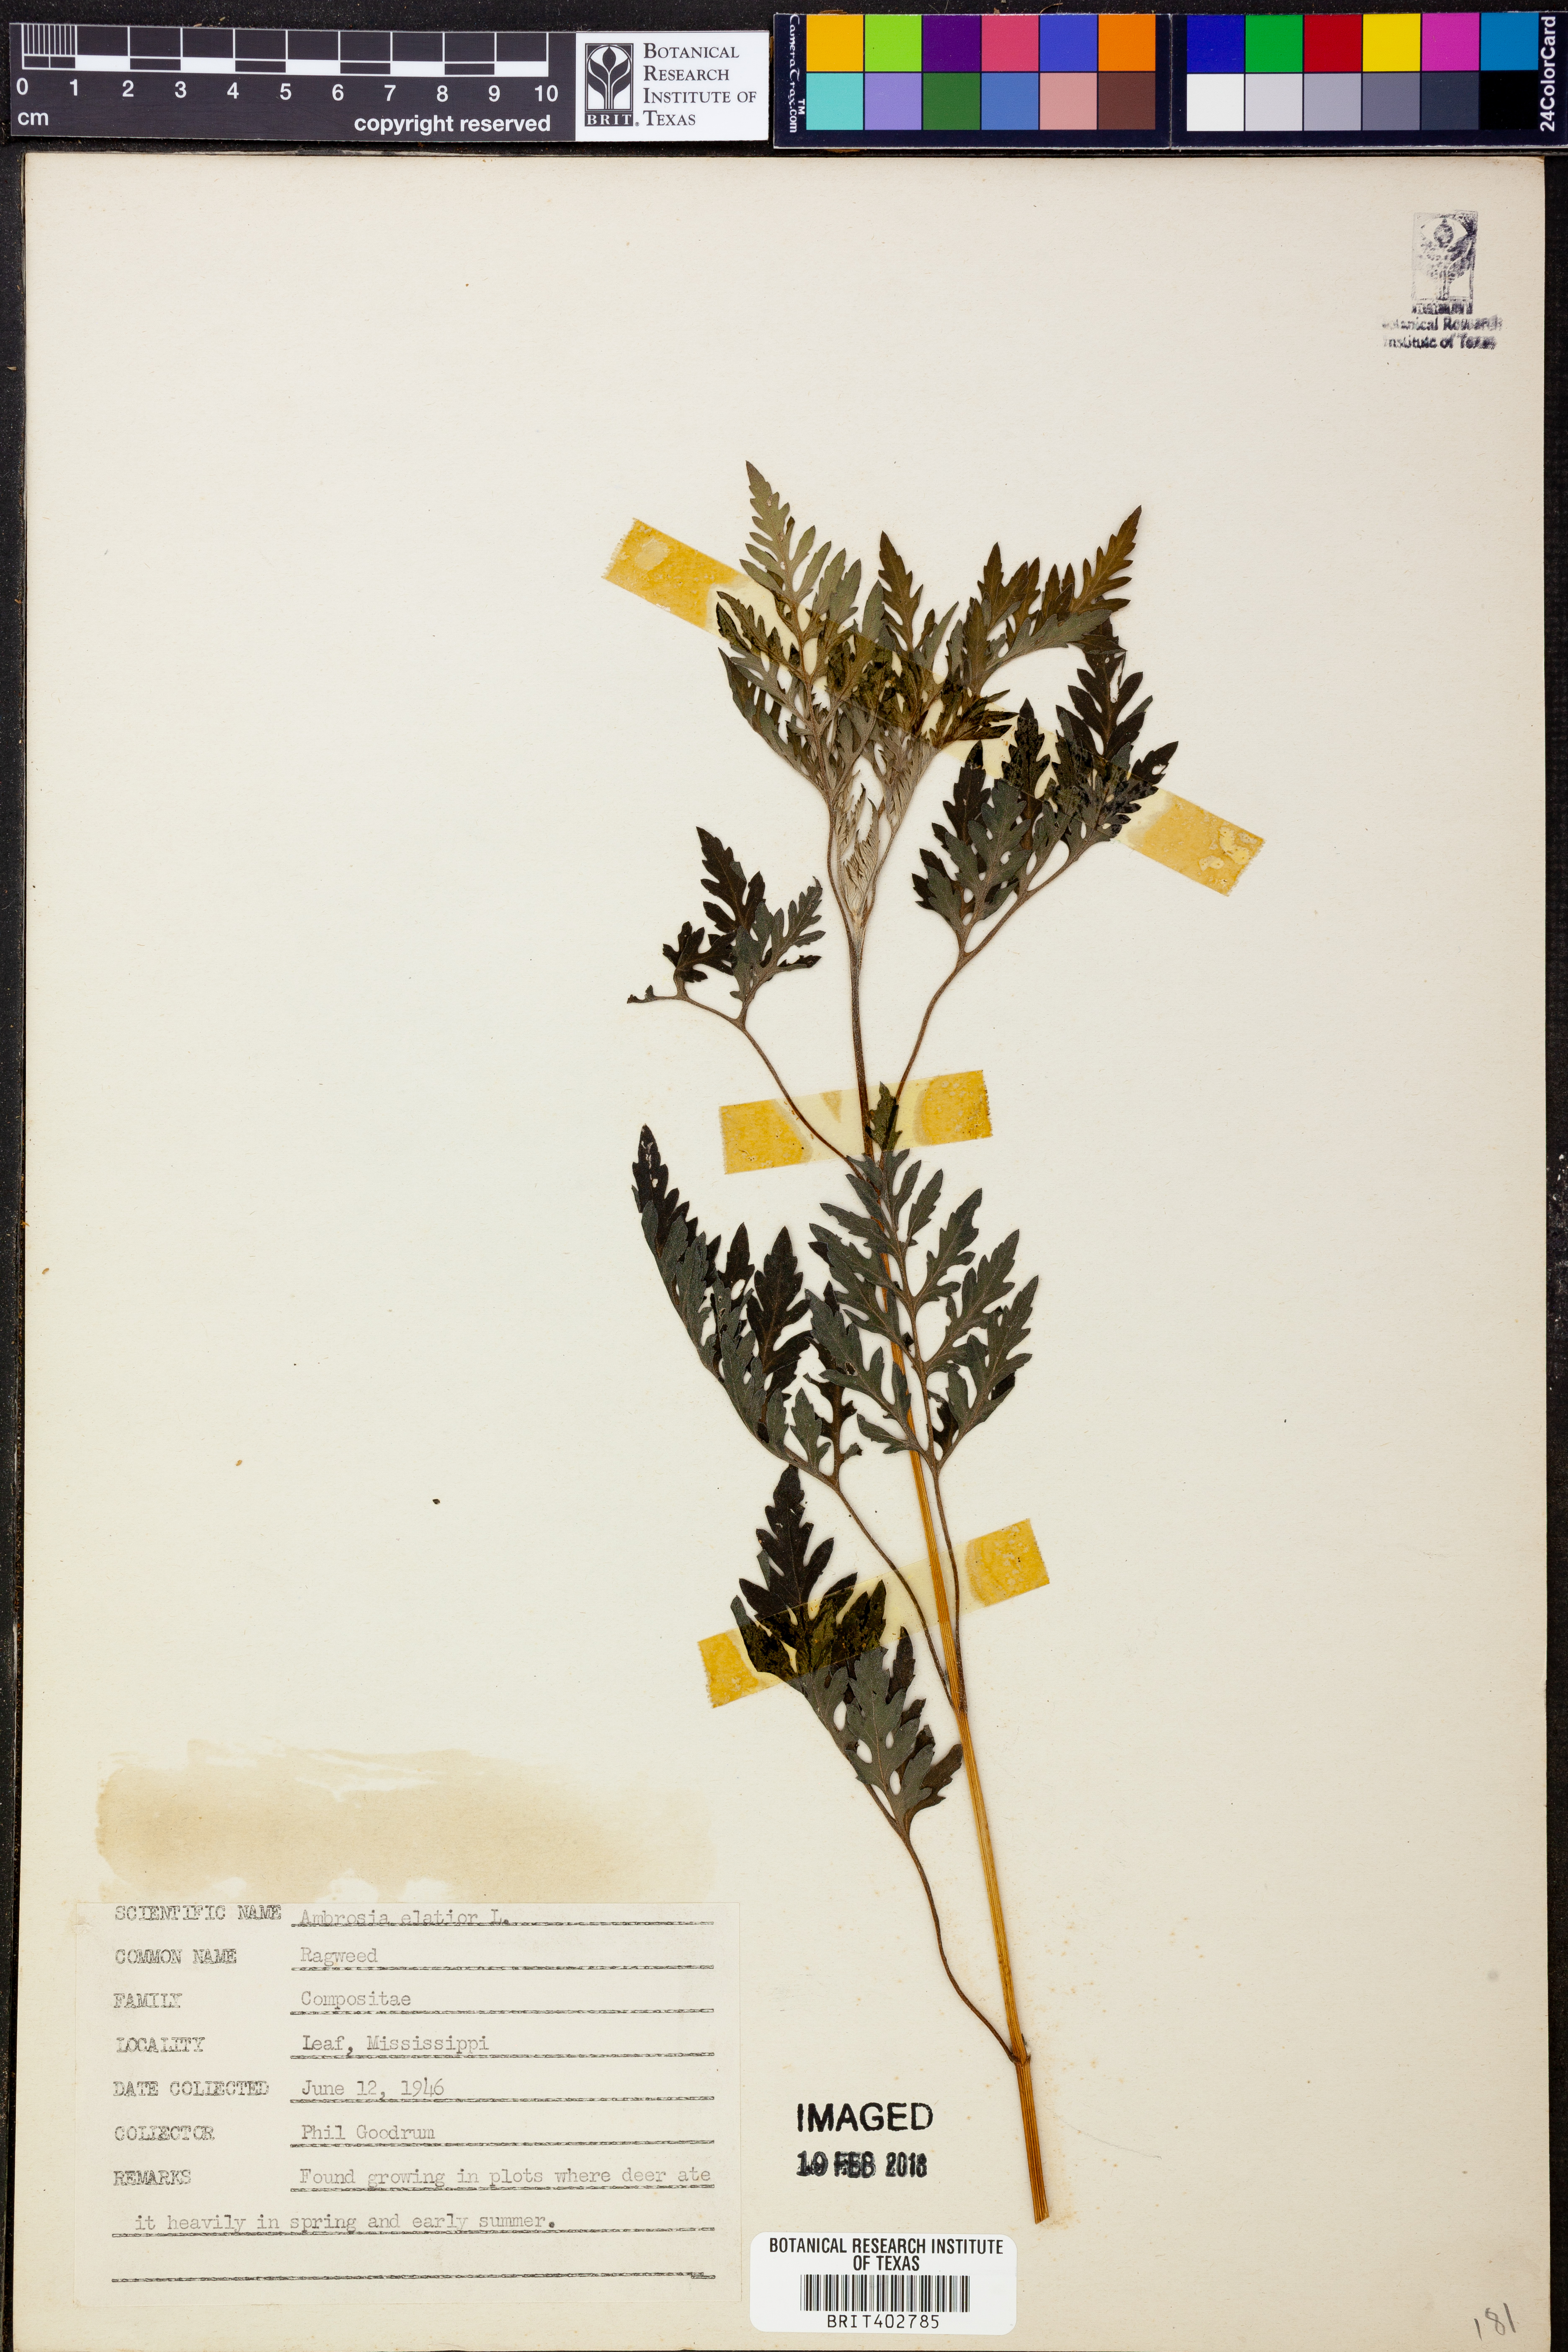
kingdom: Plantae
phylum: Tracheophyta
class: Magnoliopsida
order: Asterales
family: Asteraceae
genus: Ambrosia
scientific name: Ambrosia artemisiifolia
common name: Annual ragweed
